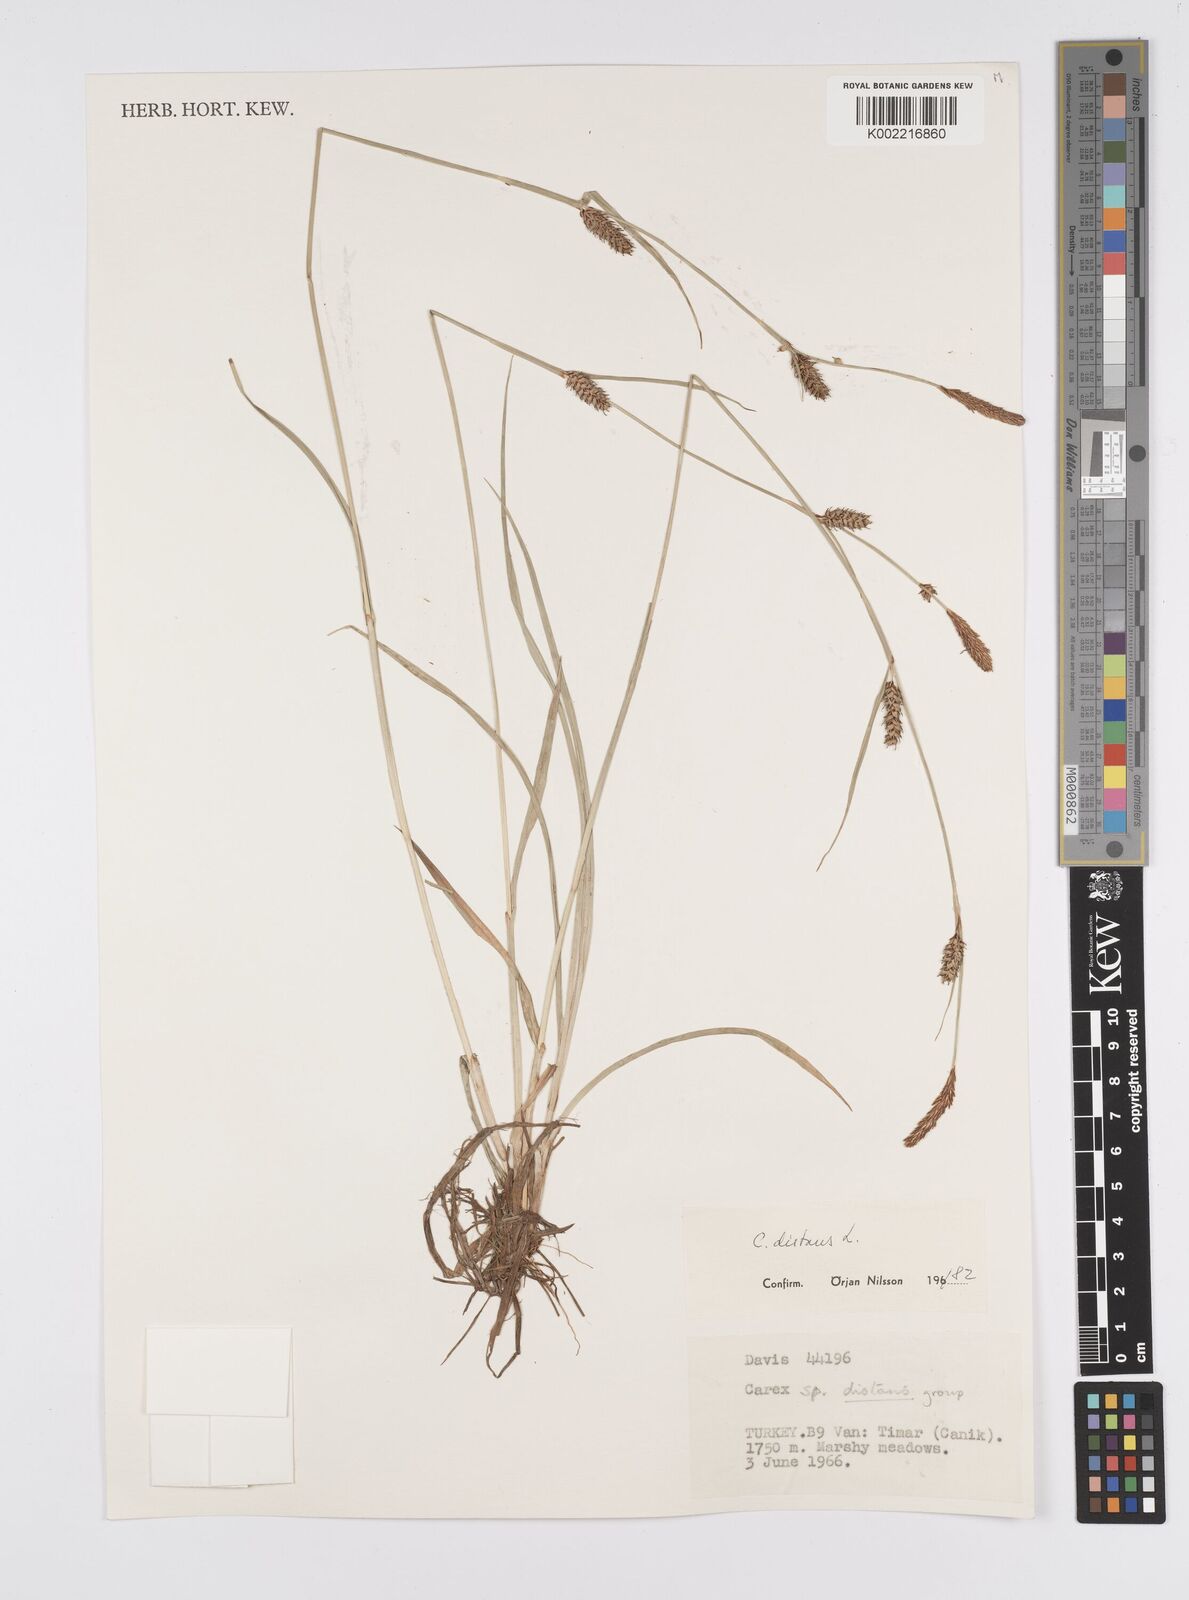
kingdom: Plantae
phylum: Tracheophyta
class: Liliopsida
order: Poales
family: Cyperaceae
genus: Carex
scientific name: Carex distans
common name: Distant sedge
